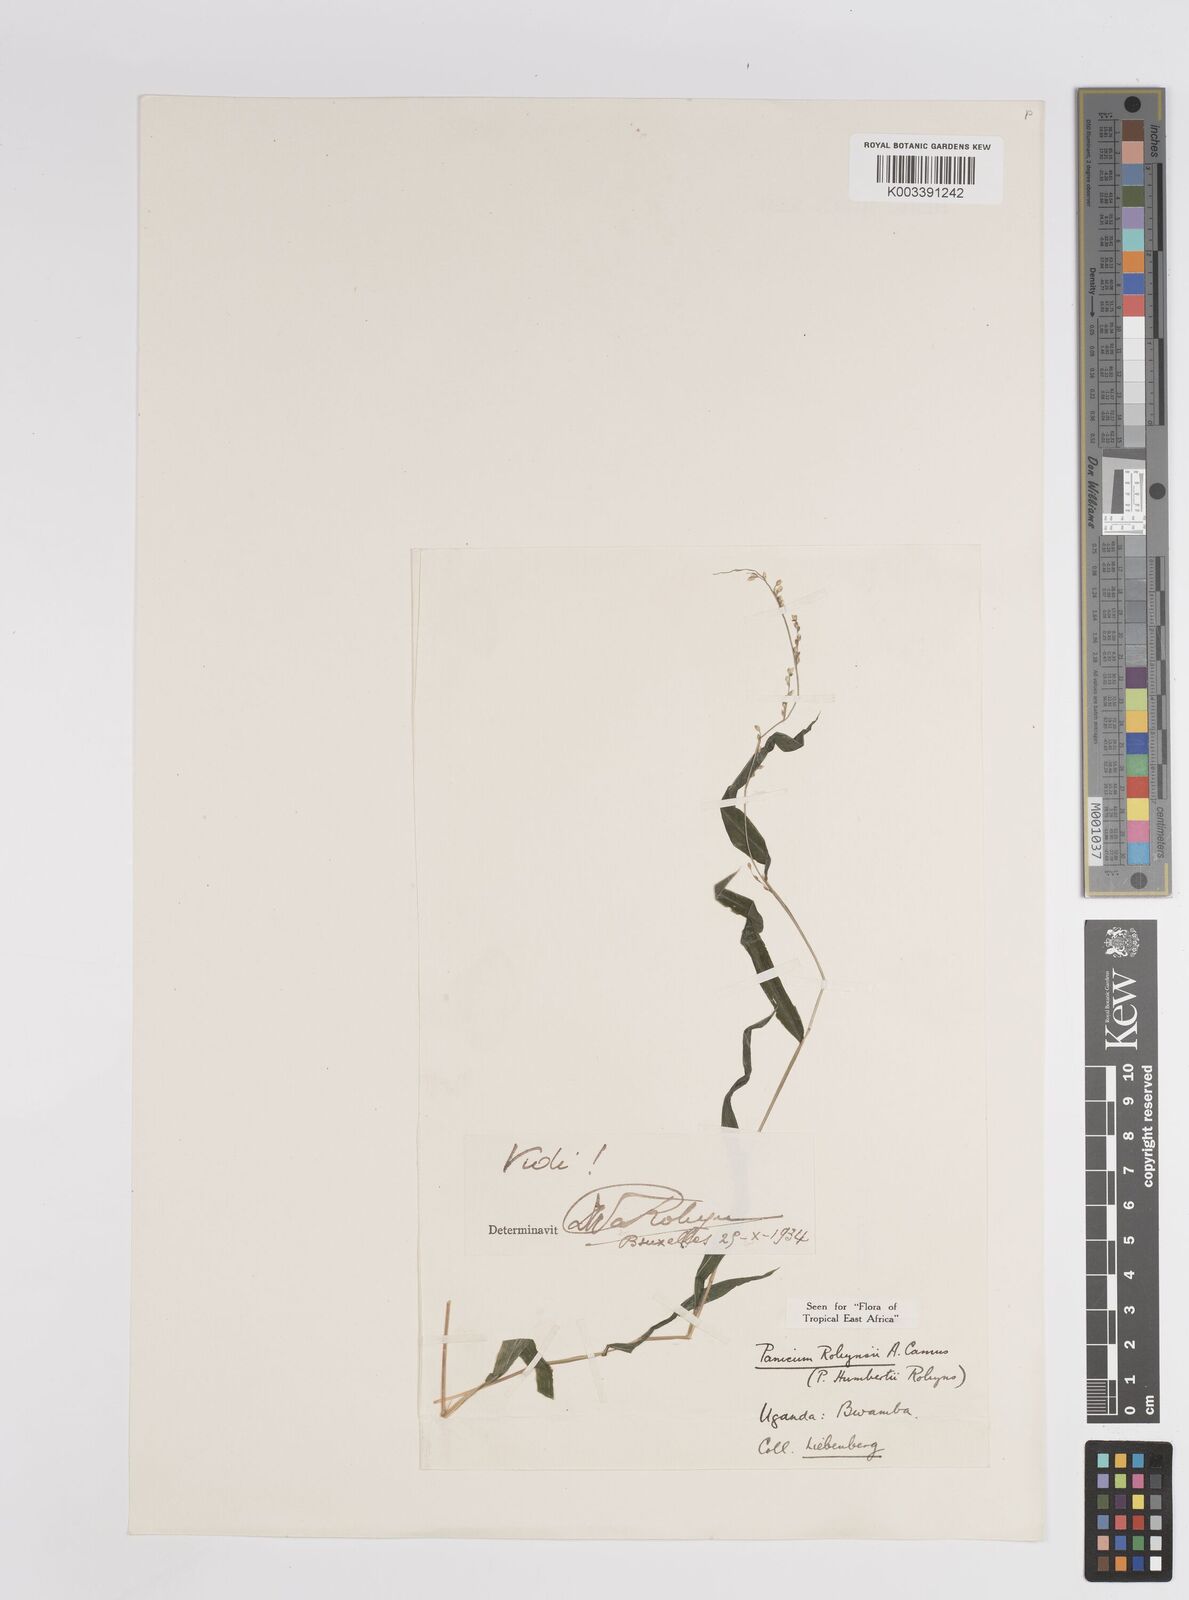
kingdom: Plantae
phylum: Tracheophyta
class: Liliopsida
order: Poales
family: Poaceae
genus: Panicum
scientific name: Panicum robynsii
